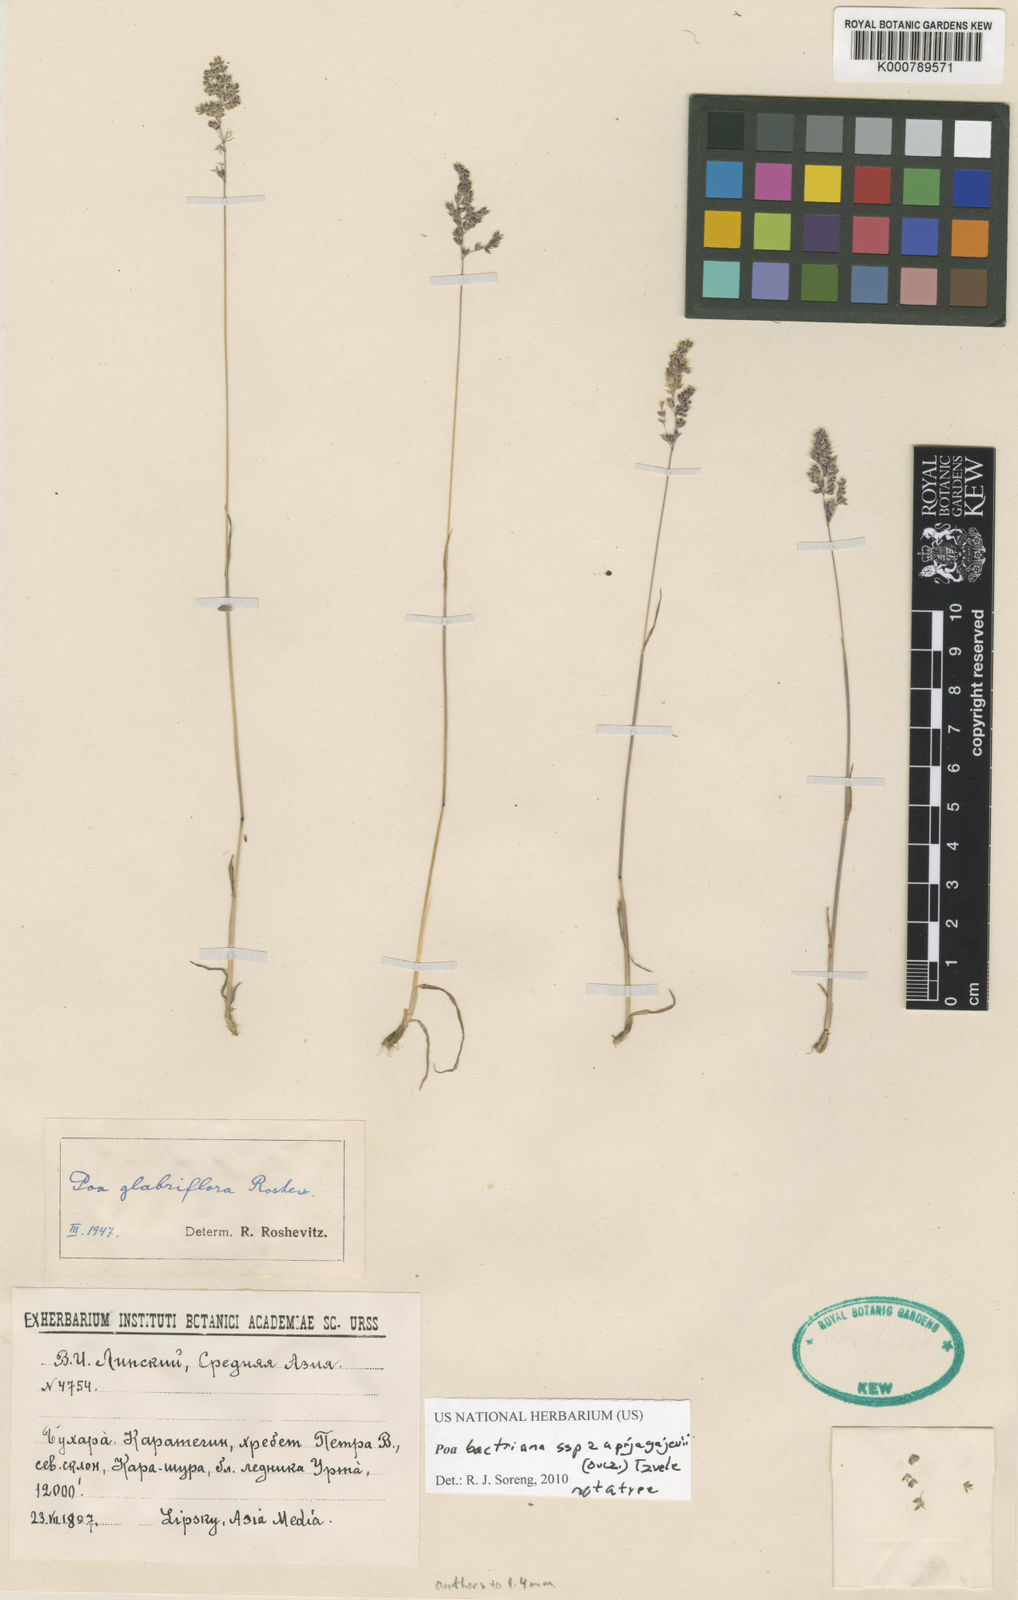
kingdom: Plantae
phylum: Tracheophyta
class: Liliopsida
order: Poales
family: Poaceae
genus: Poa
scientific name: Poa bactriana
